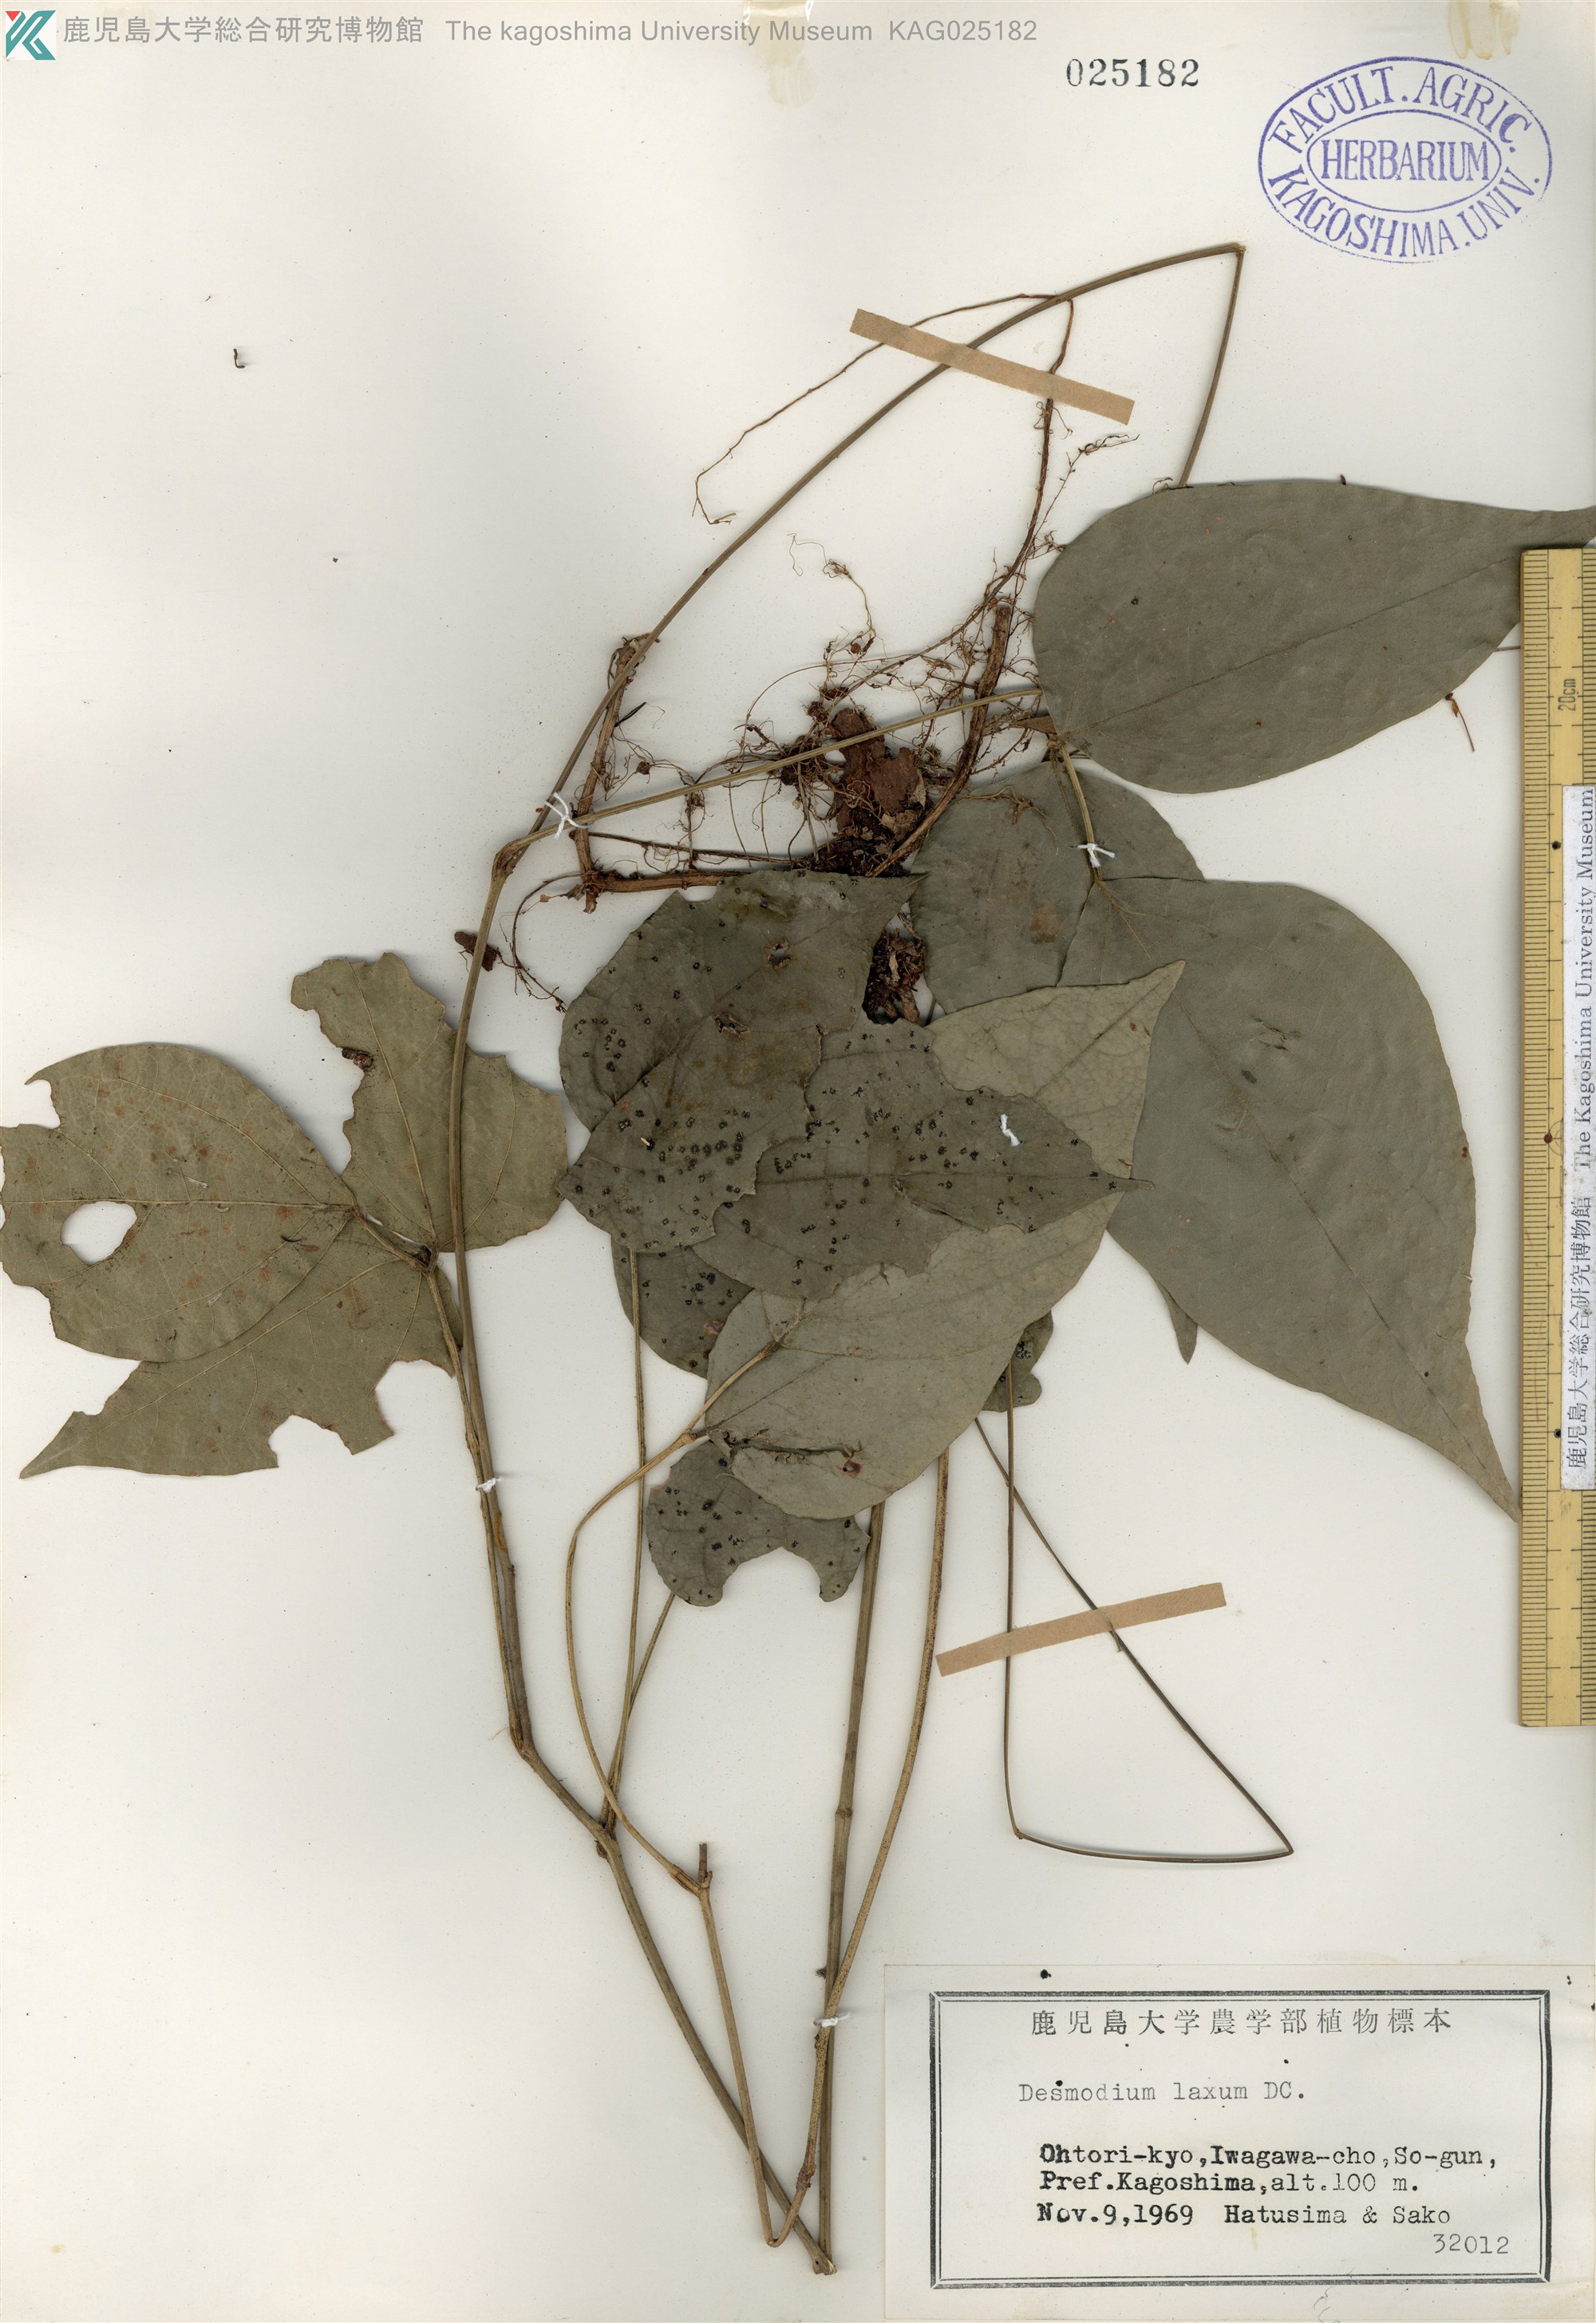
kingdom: Plantae
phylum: Tracheophyta
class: Magnoliopsida
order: Fabales
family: Fabaceae
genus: Desmodium
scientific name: Desmodium laxum
